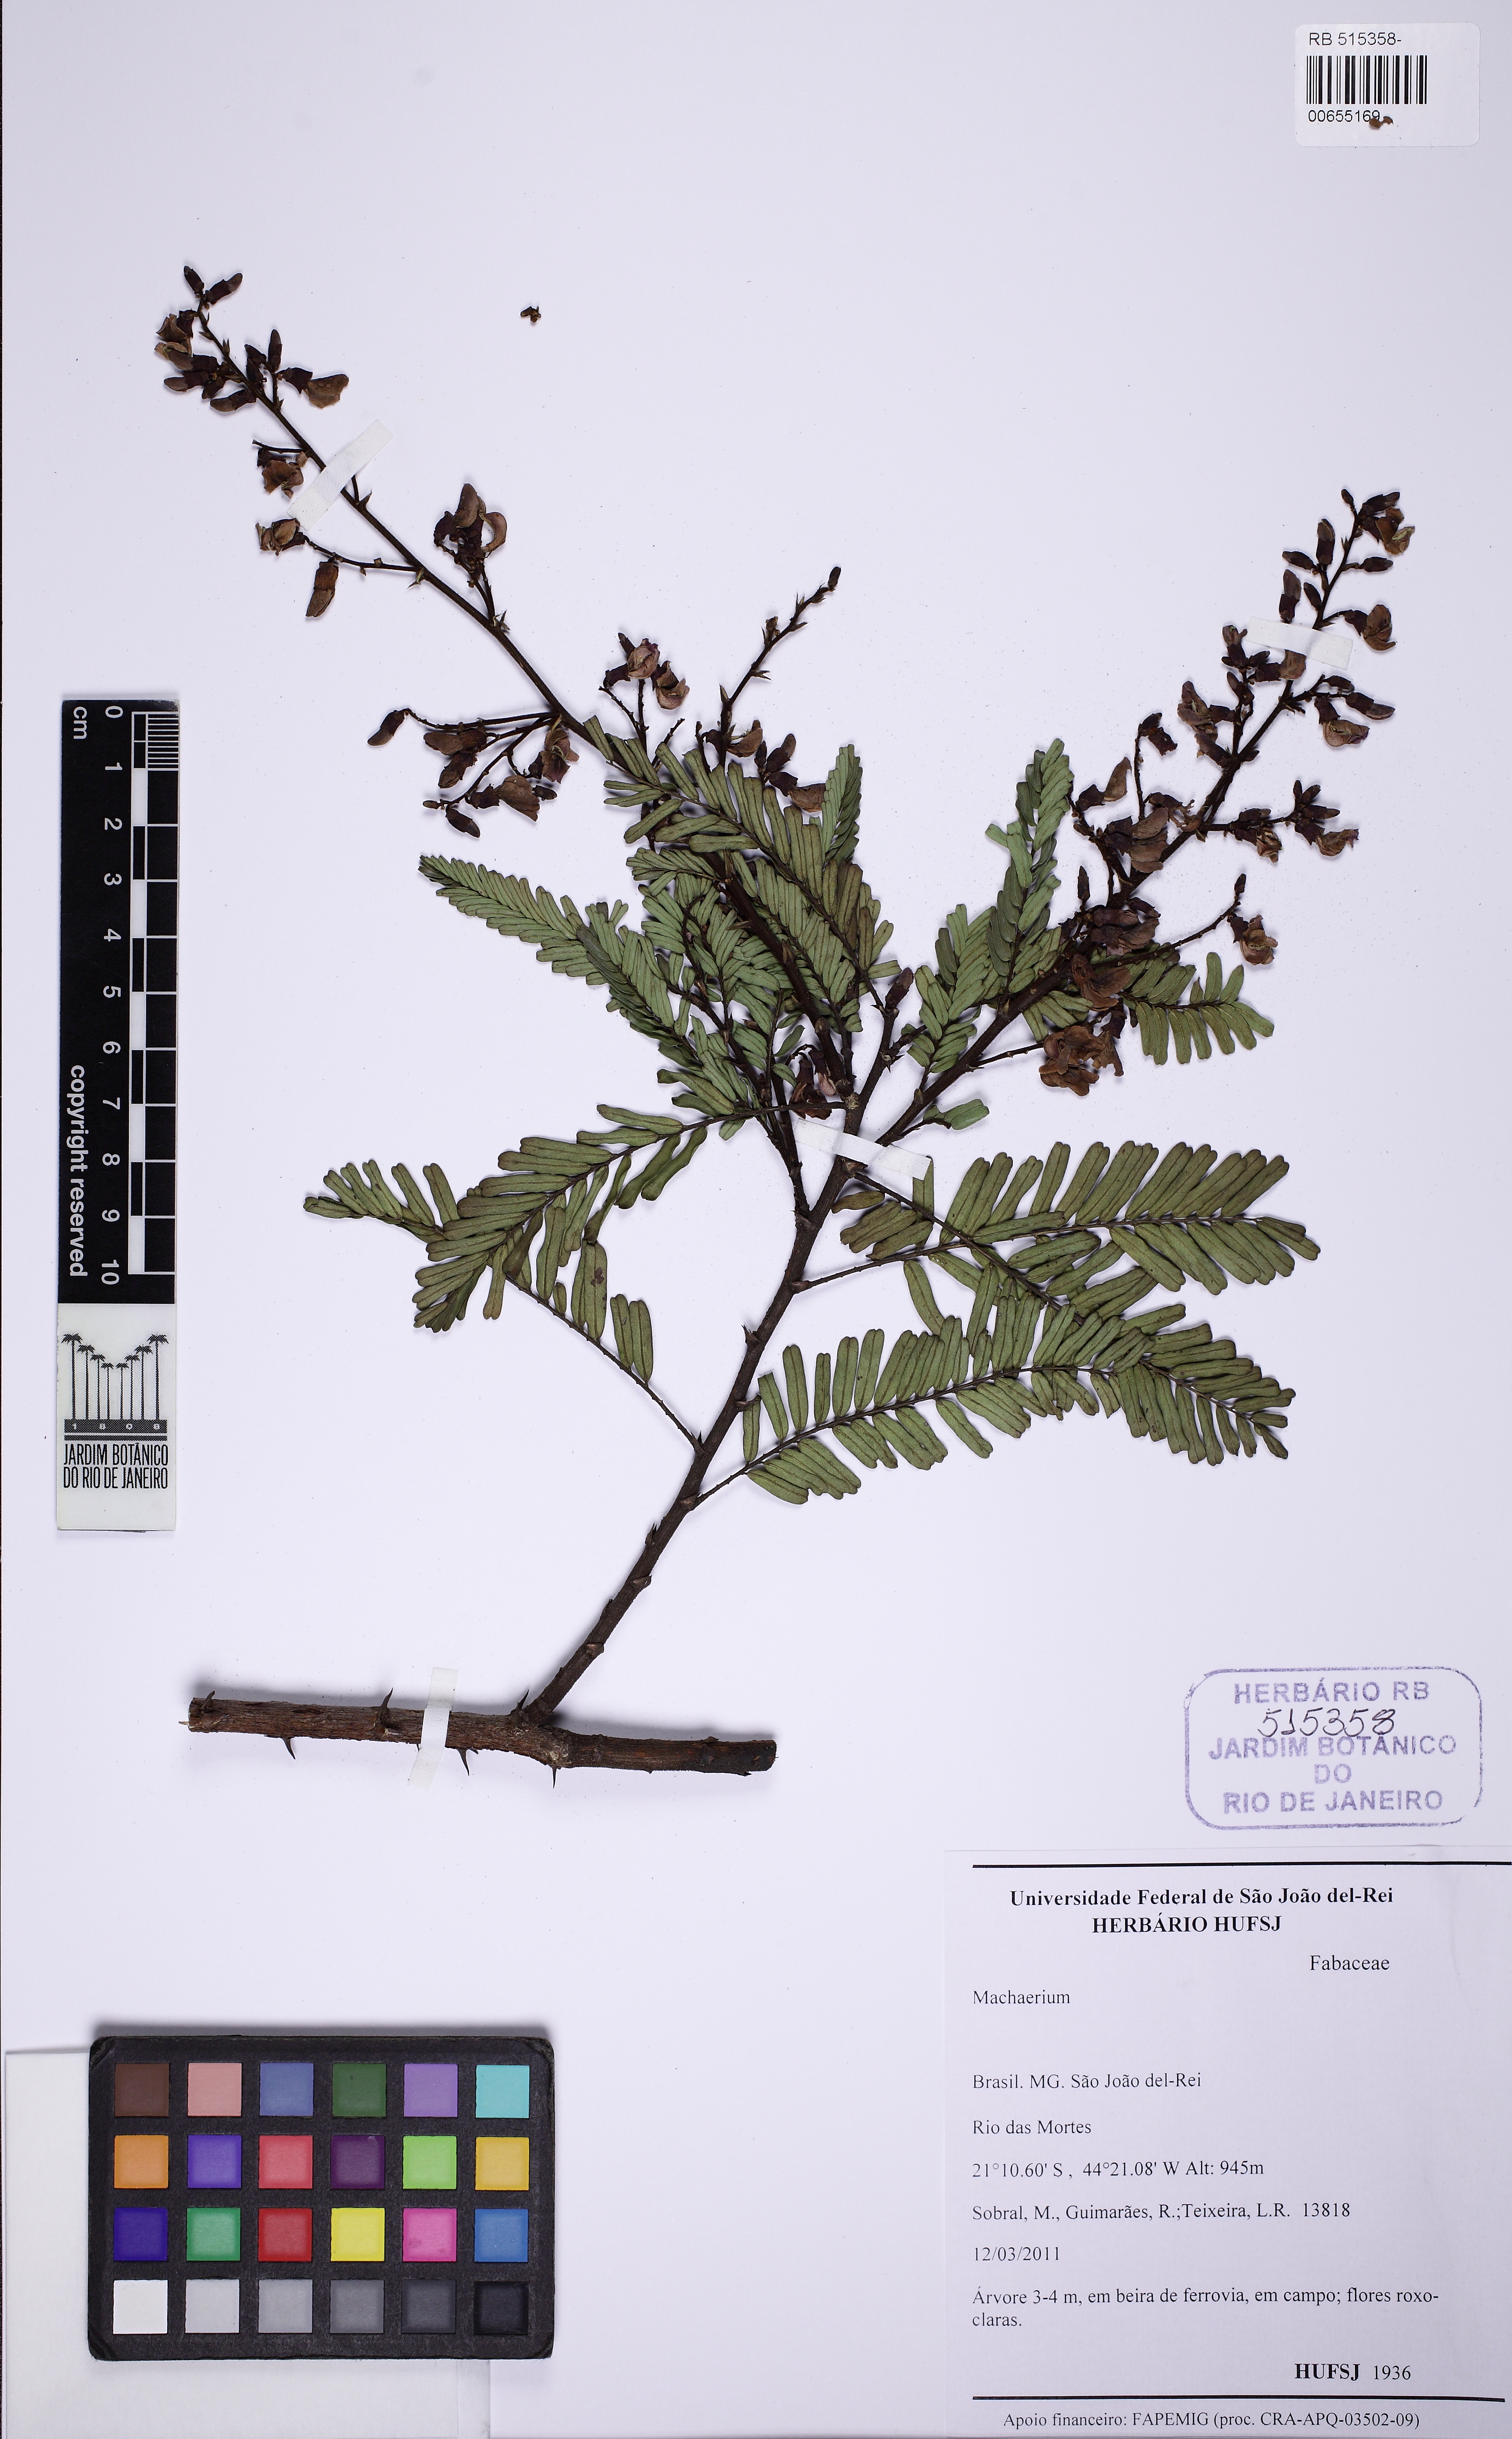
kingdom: Plantae
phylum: Tracheophyta
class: Magnoliopsida
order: Fabales
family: Fabaceae
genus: Machaerium
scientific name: Machaerium hirtum
